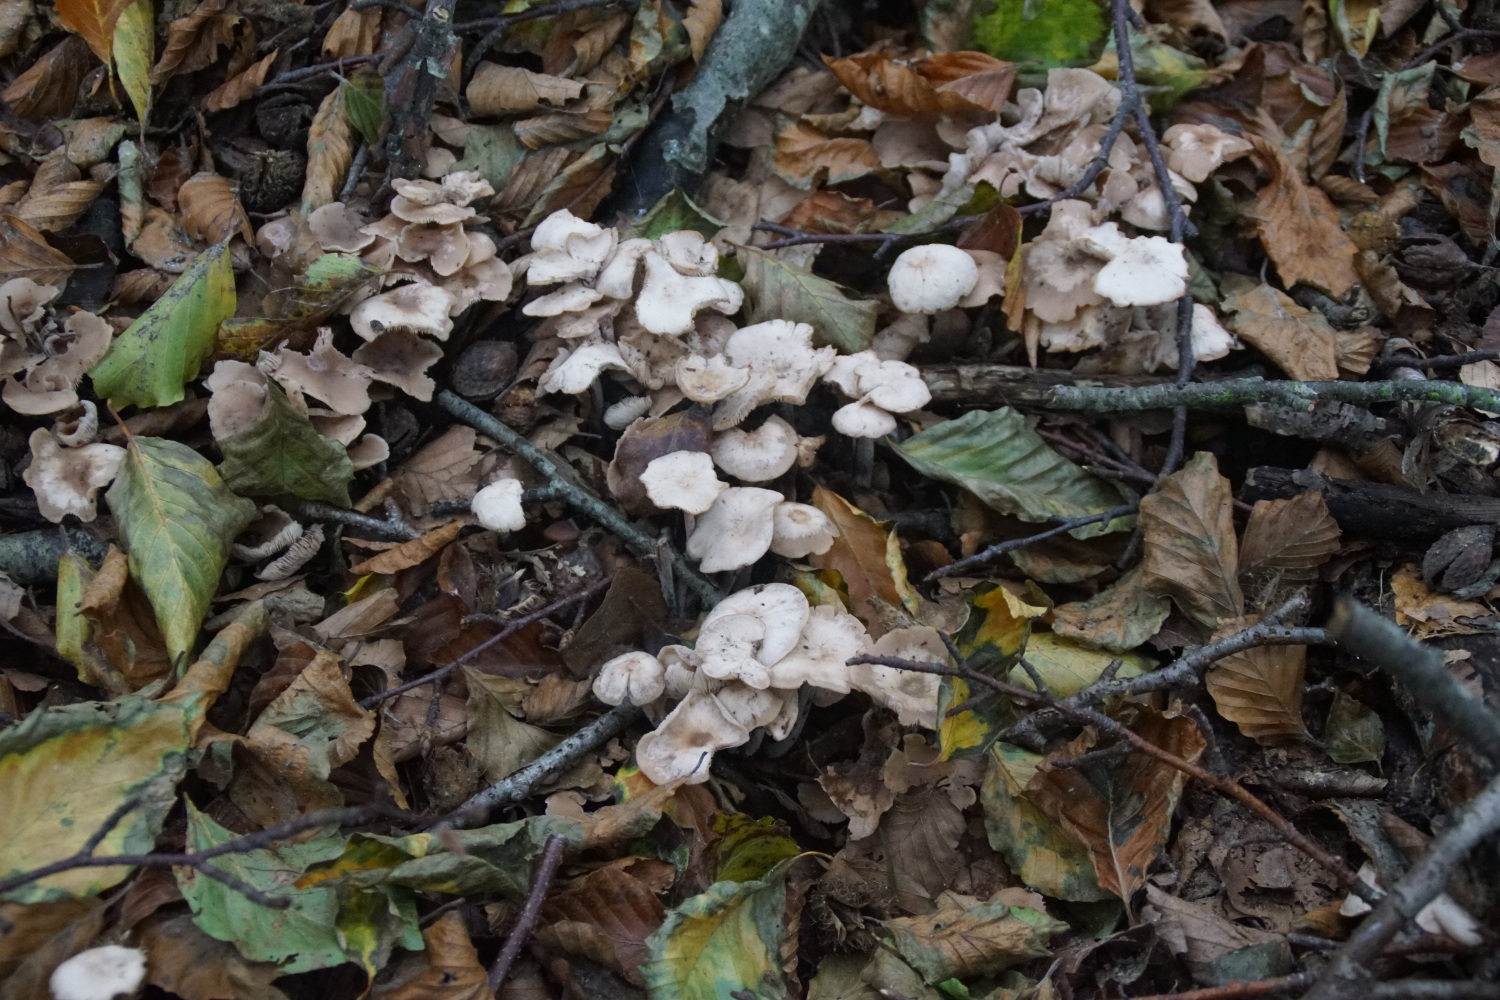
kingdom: Fungi
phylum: Basidiomycota
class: Agaricomycetes
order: Agaricales
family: Omphalotaceae
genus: Collybiopsis
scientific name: Collybiopsis confluens
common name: knippe-fladhat
